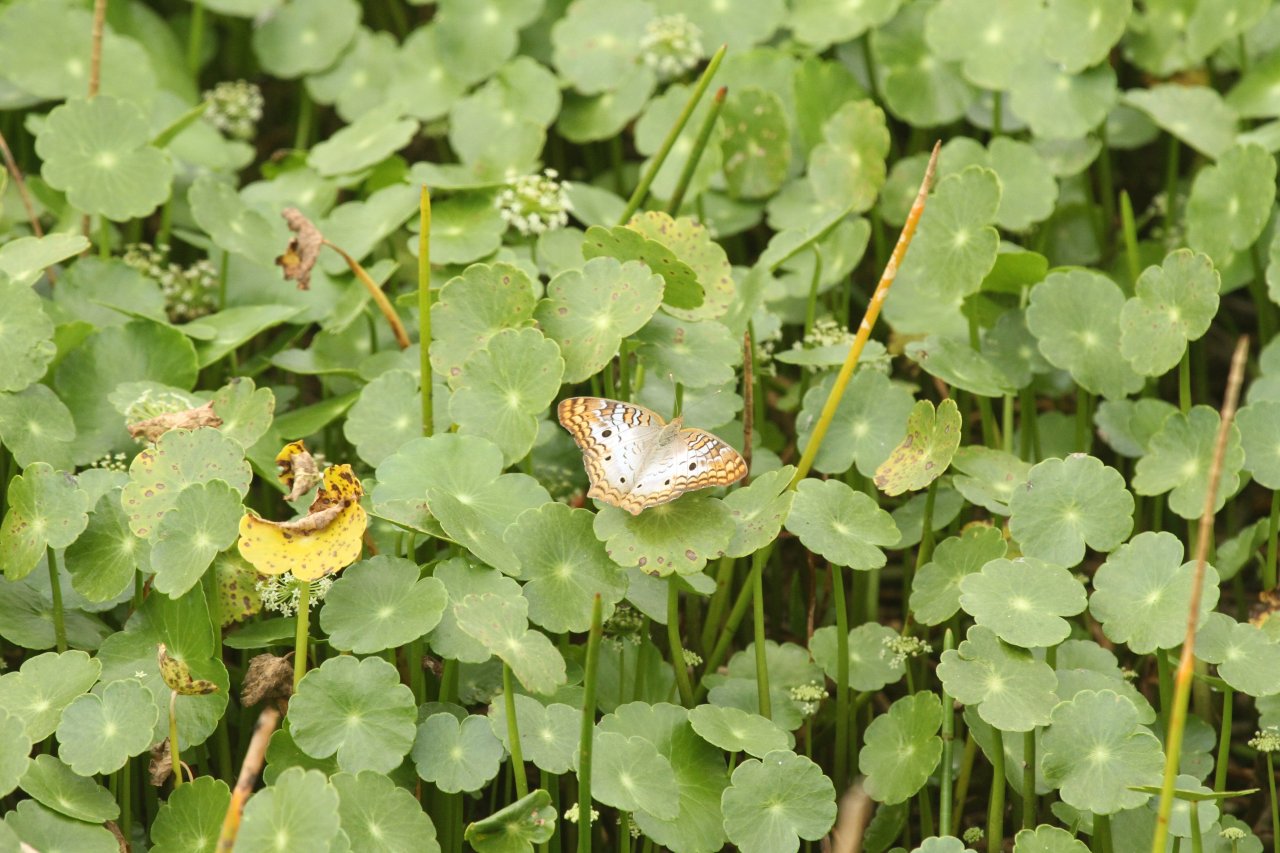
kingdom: Animalia
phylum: Arthropoda
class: Insecta
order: Lepidoptera
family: Nymphalidae
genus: Anartia
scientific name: Anartia jatrophae
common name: White Peacock
